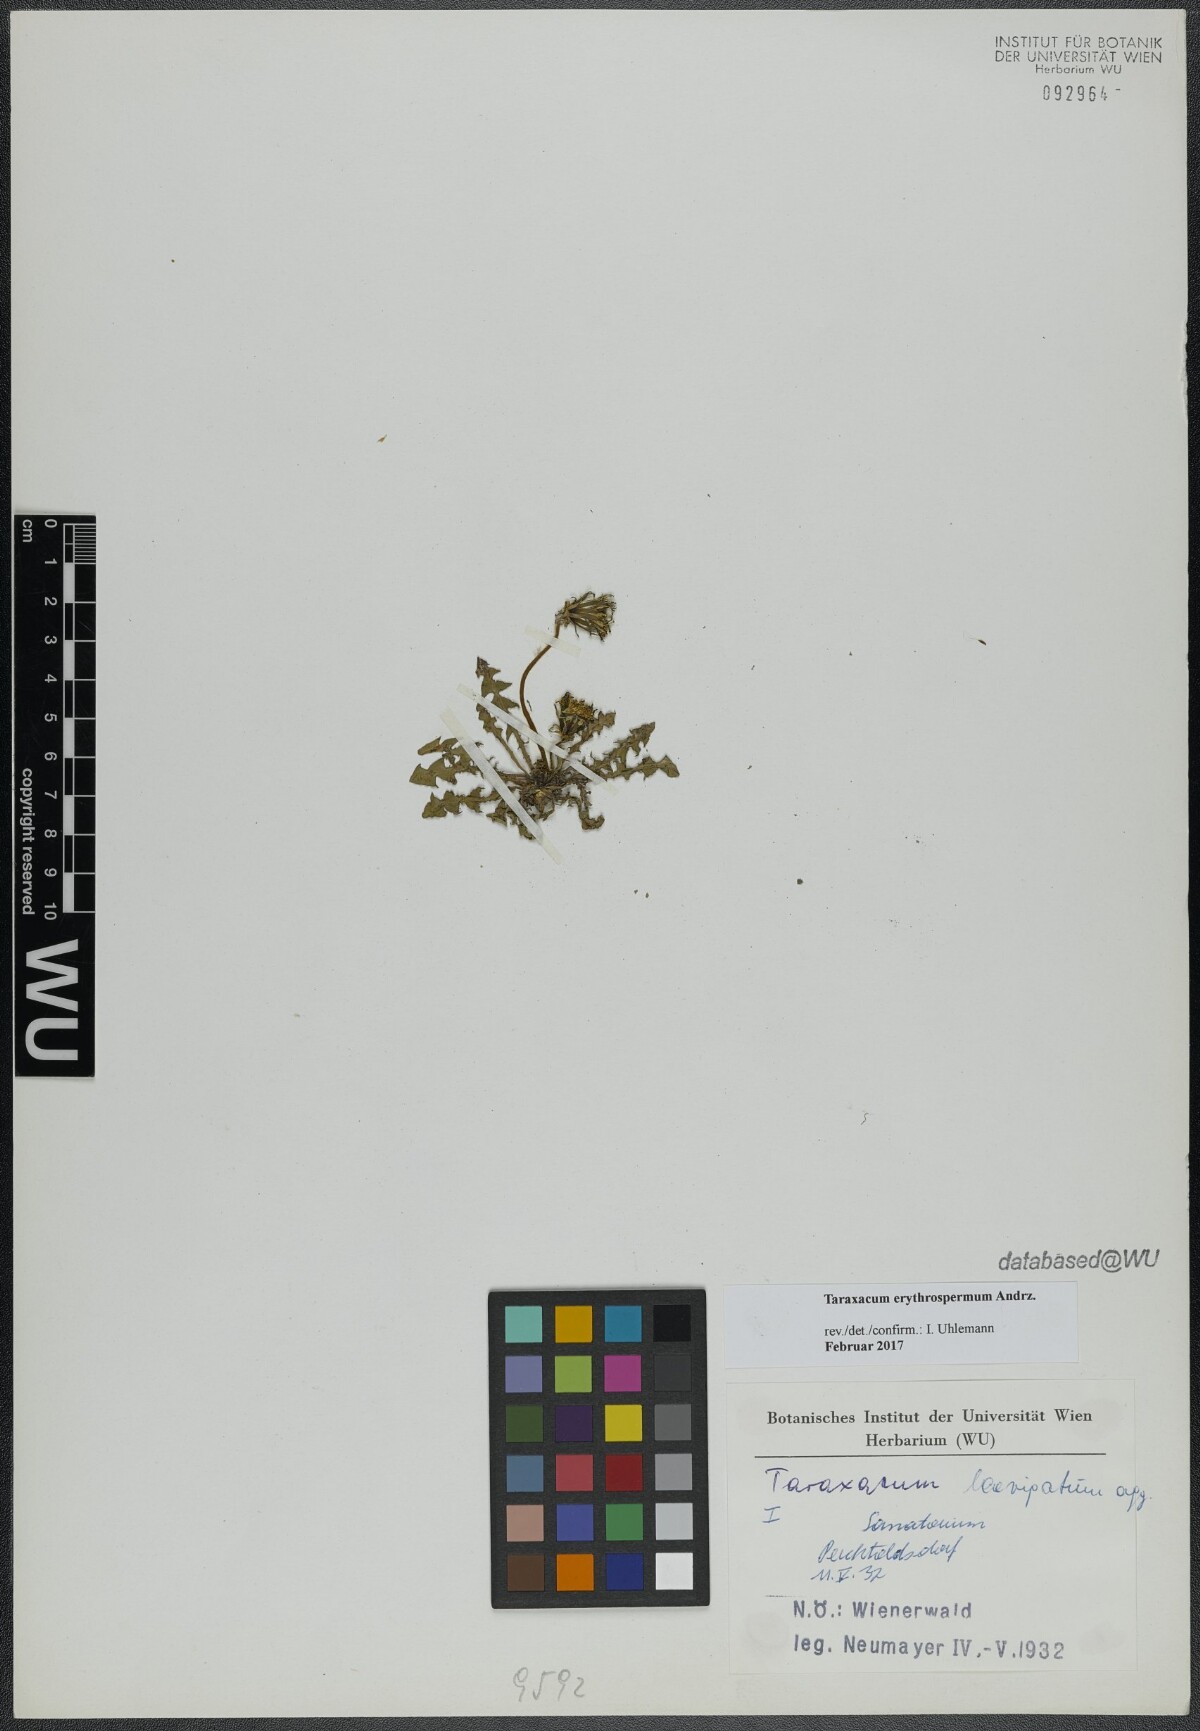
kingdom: Plantae
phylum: Tracheophyta
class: Magnoliopsida
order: Asterales
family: Asteraceae
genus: Taraxacum
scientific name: Taraxacum erythrospermum
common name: Rock dandelion
